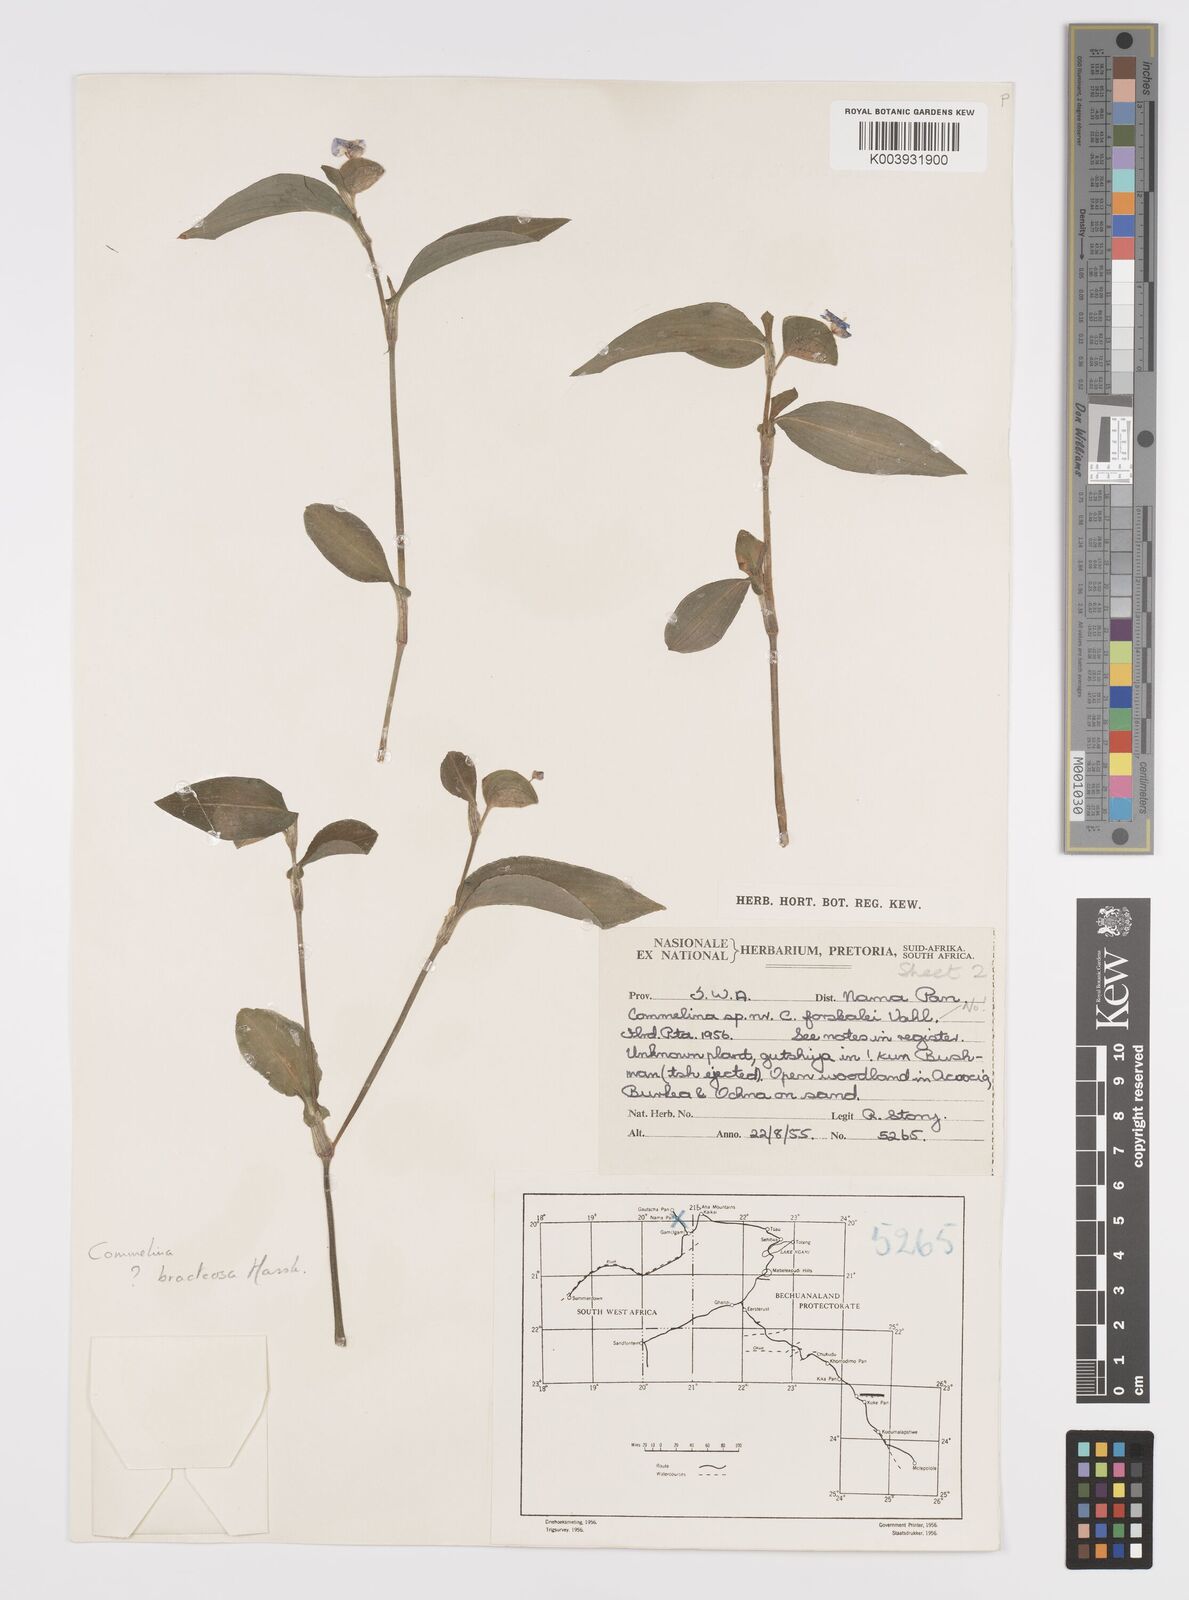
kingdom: Plantae
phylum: Tracheophyta
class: Liliopsida
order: Commelinales
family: Commelinaceae
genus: Commelina
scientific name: Commelina zambesica
